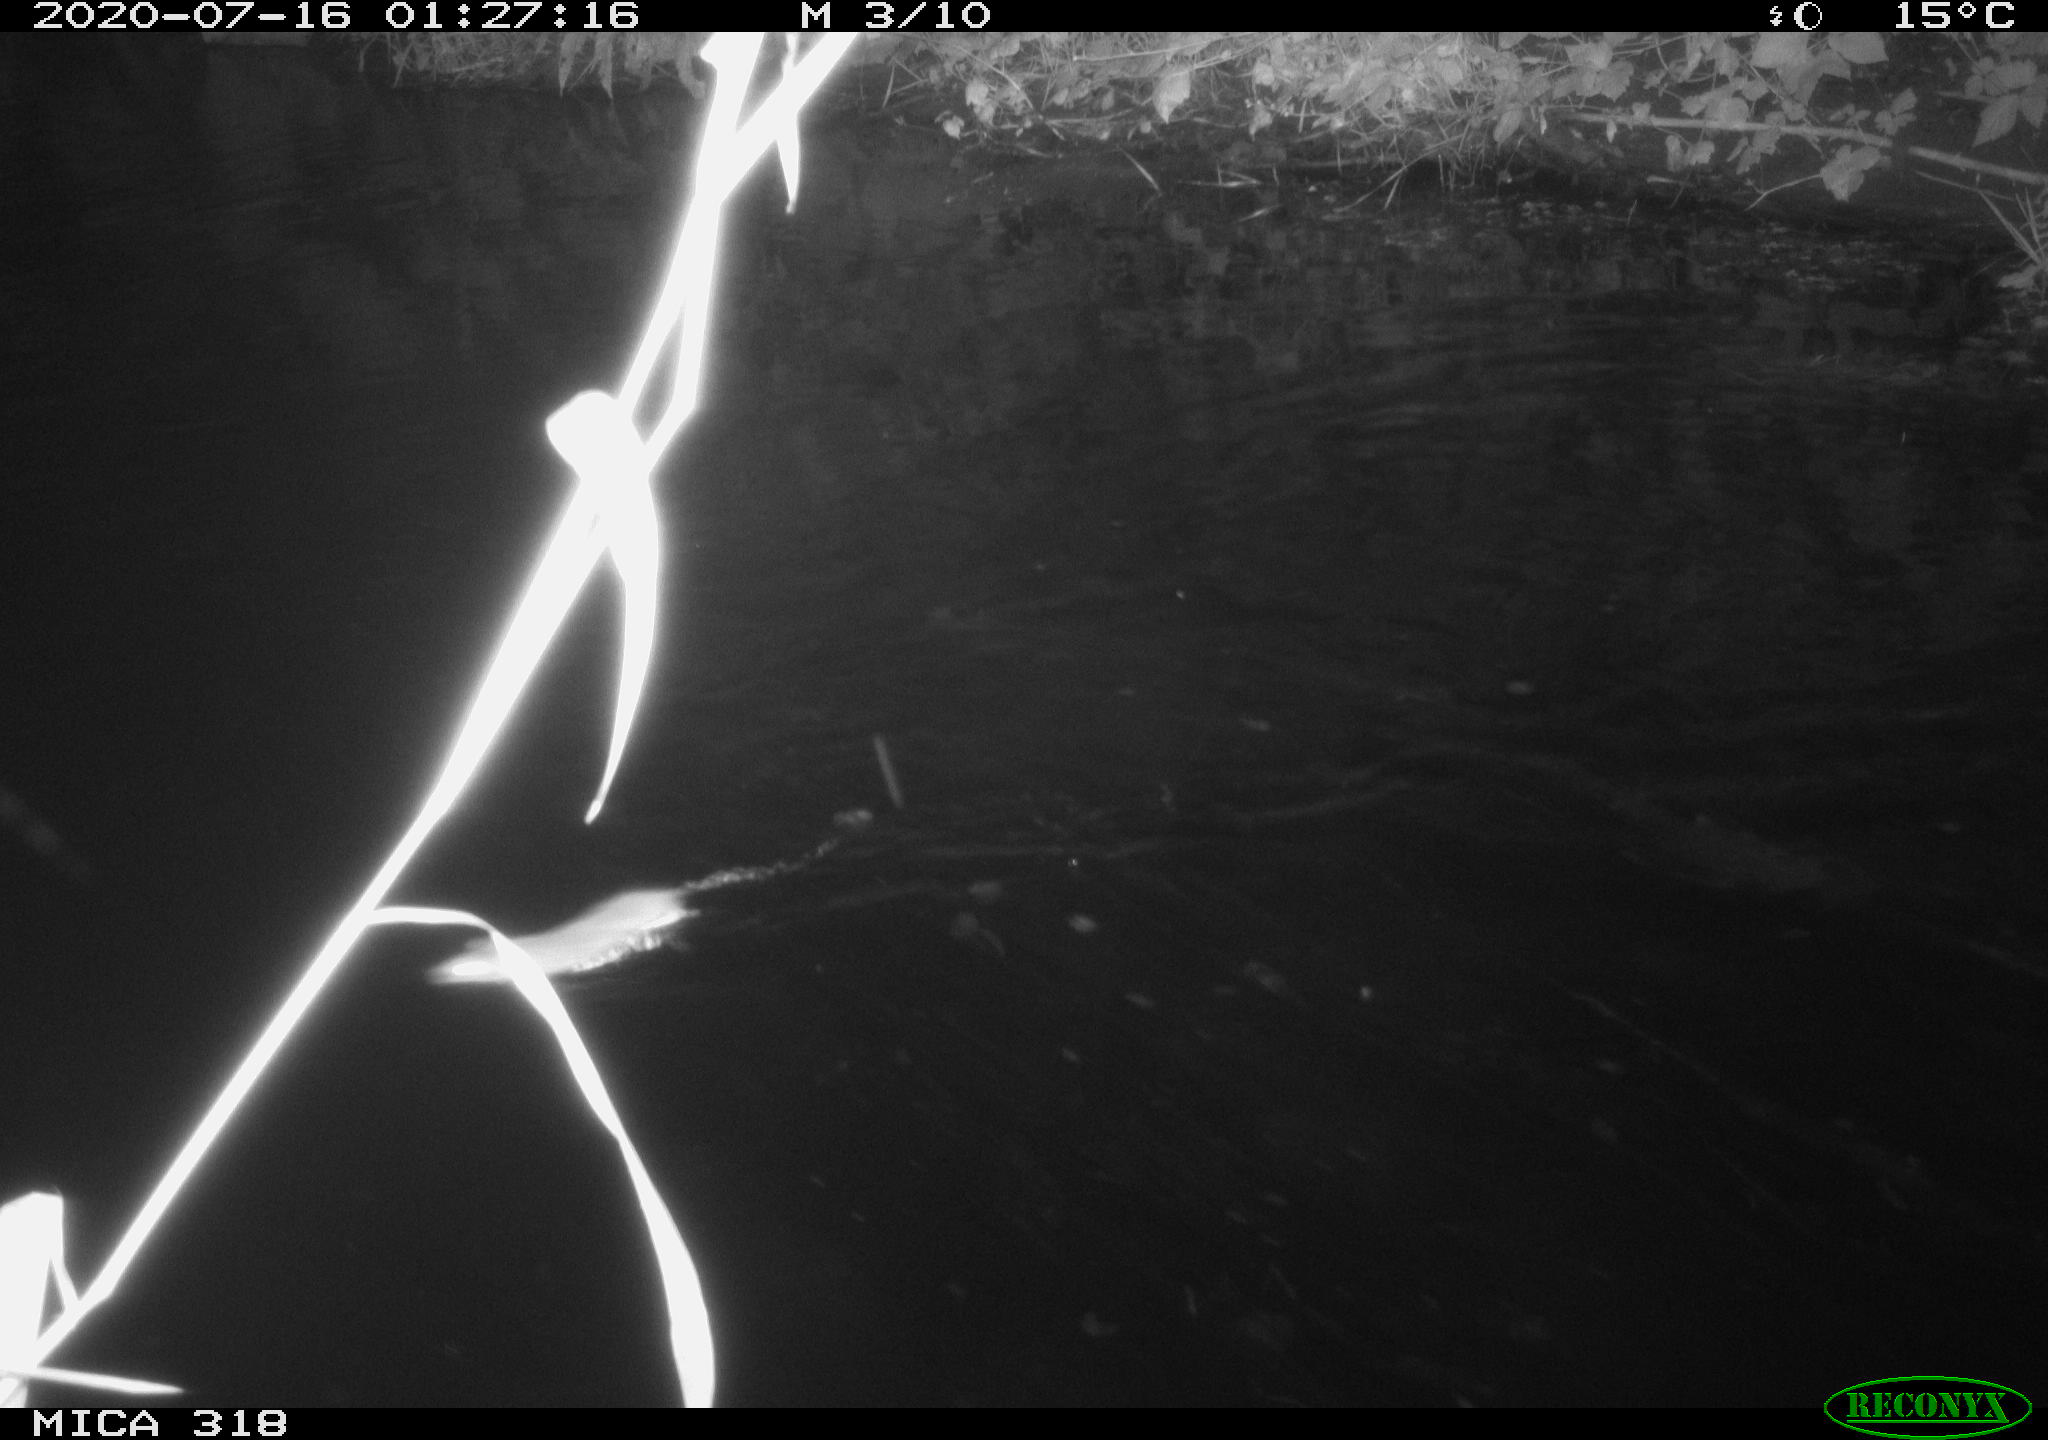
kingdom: Animalia
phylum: Chordata
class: Mammalia
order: Rodentia
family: Muridae
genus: Rattus
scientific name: Rattus norvegicus
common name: Brown rat
